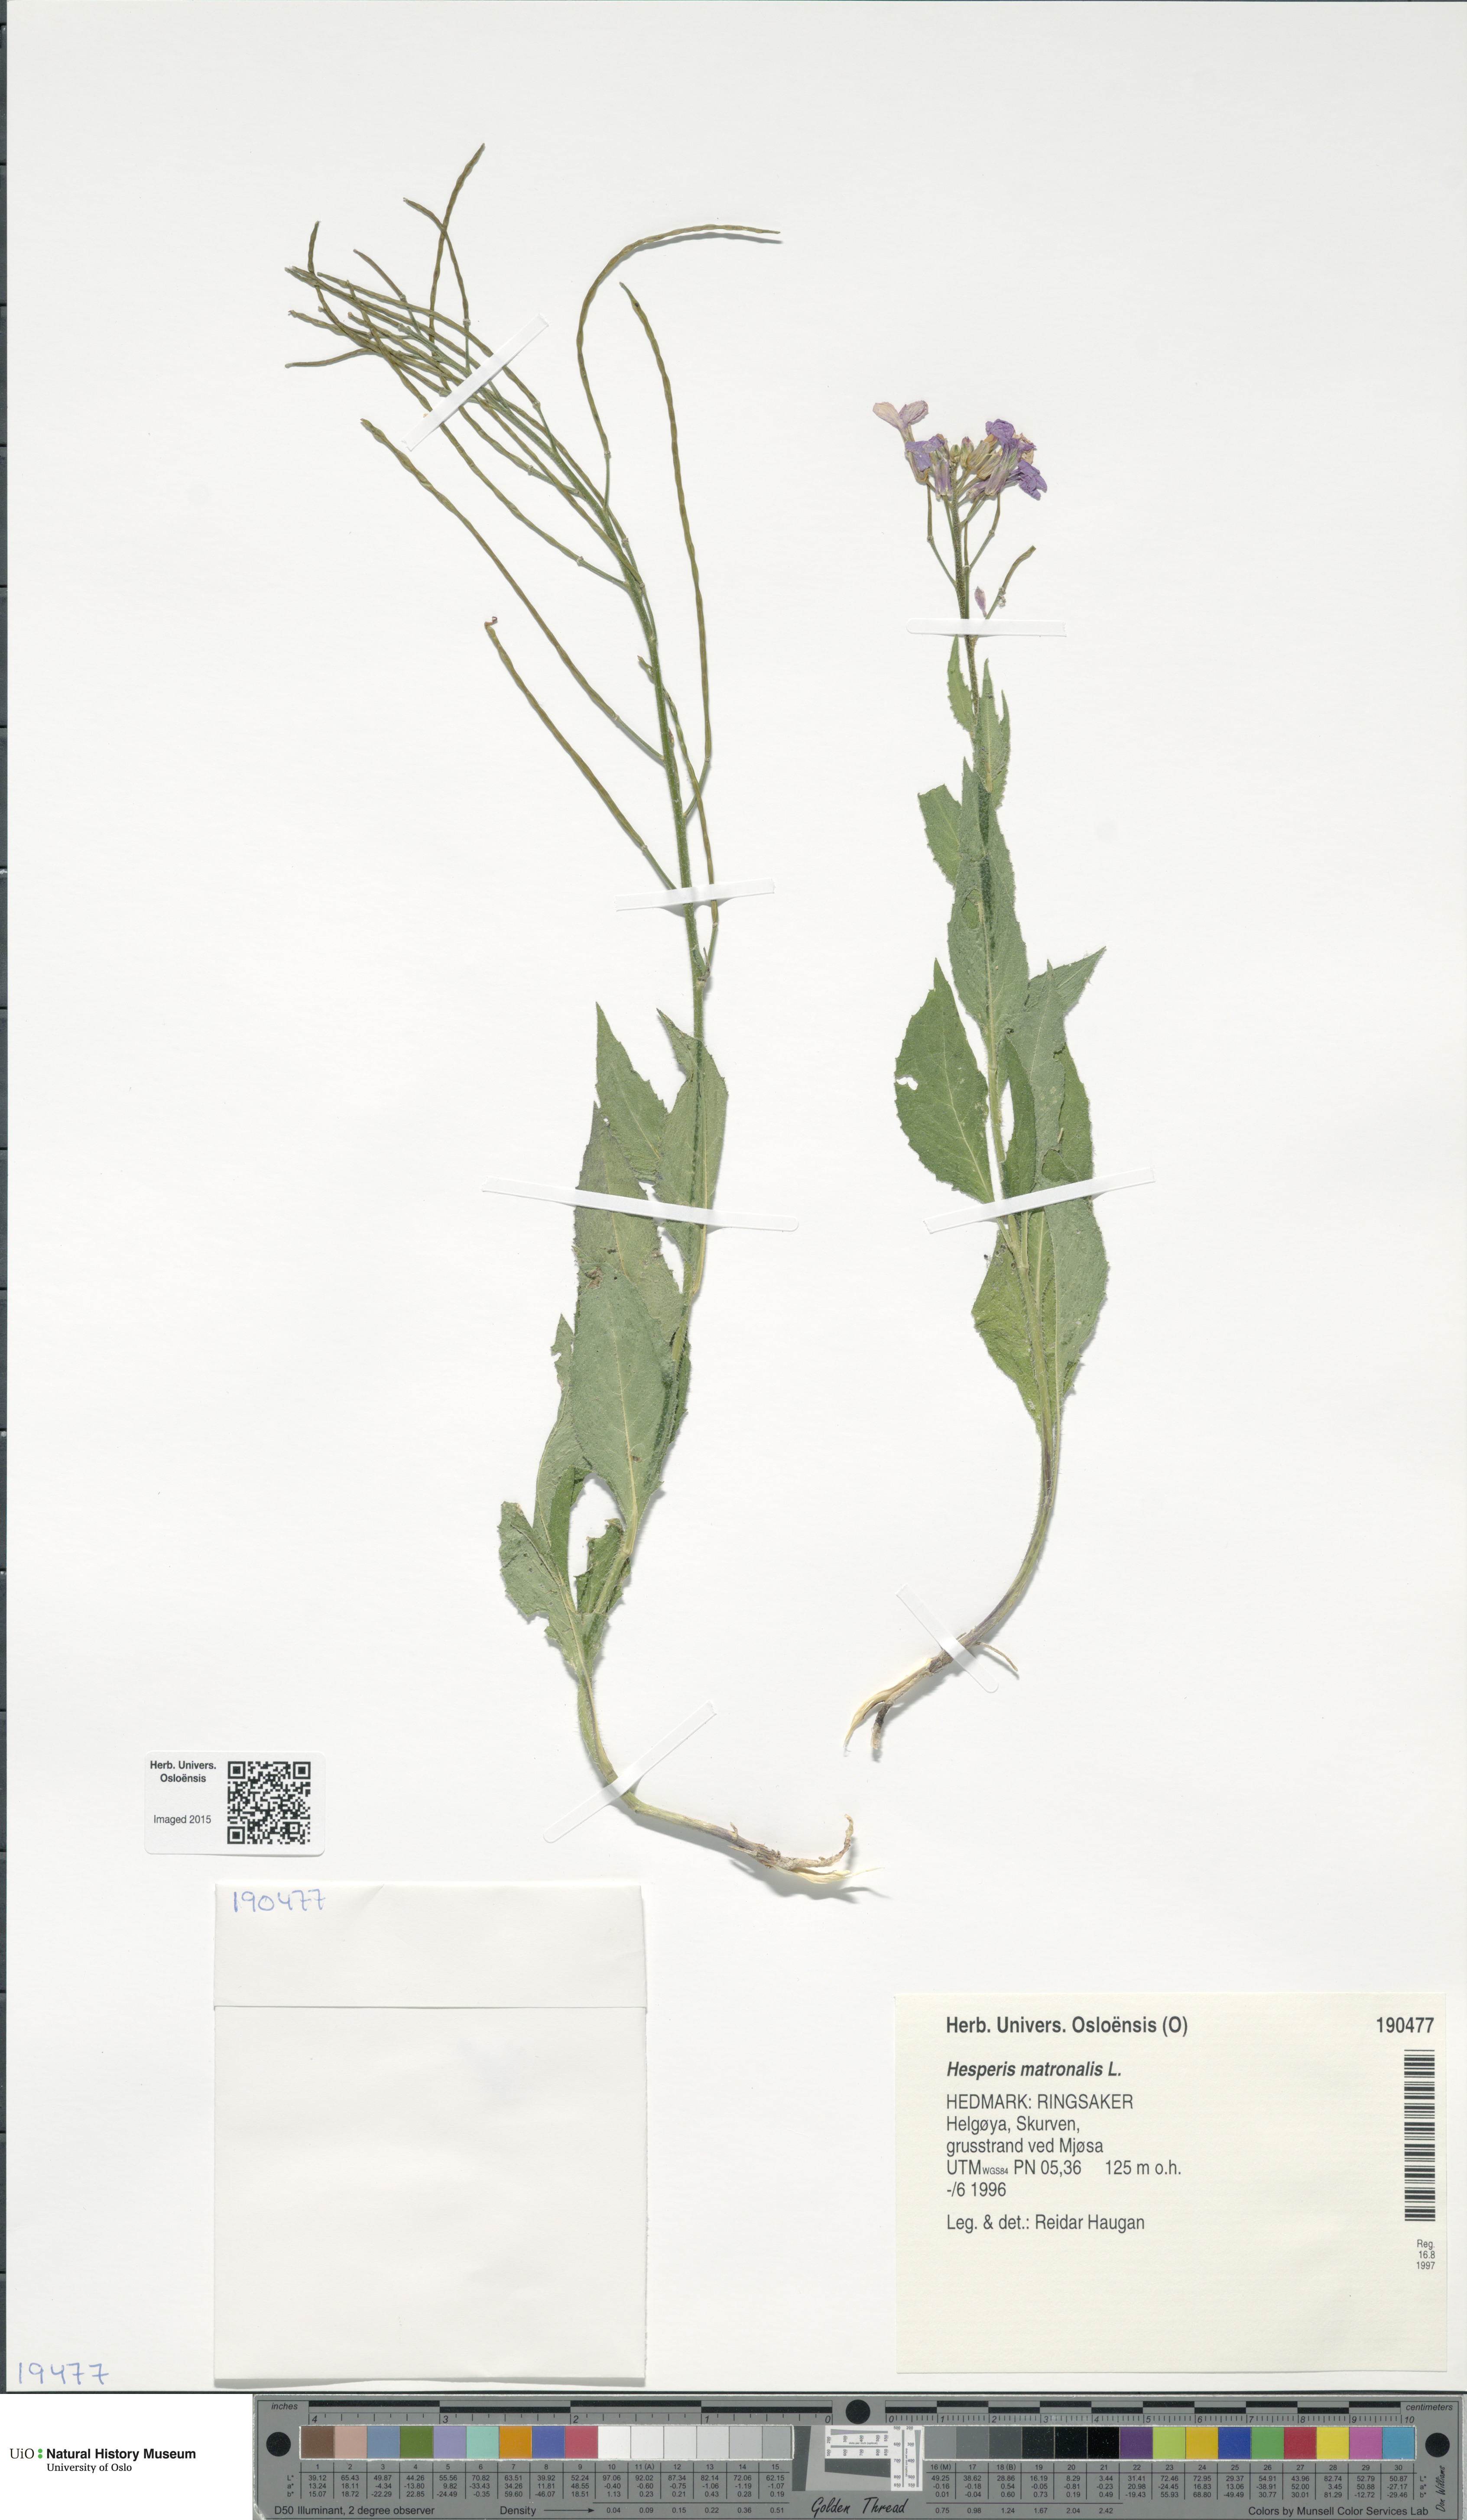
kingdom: Plantae
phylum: Tracheophyta
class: Magnoliopsida
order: Brassicales
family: Brassicaceae
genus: Hesperis
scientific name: Hesperis matronalis
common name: Dame's-violet
